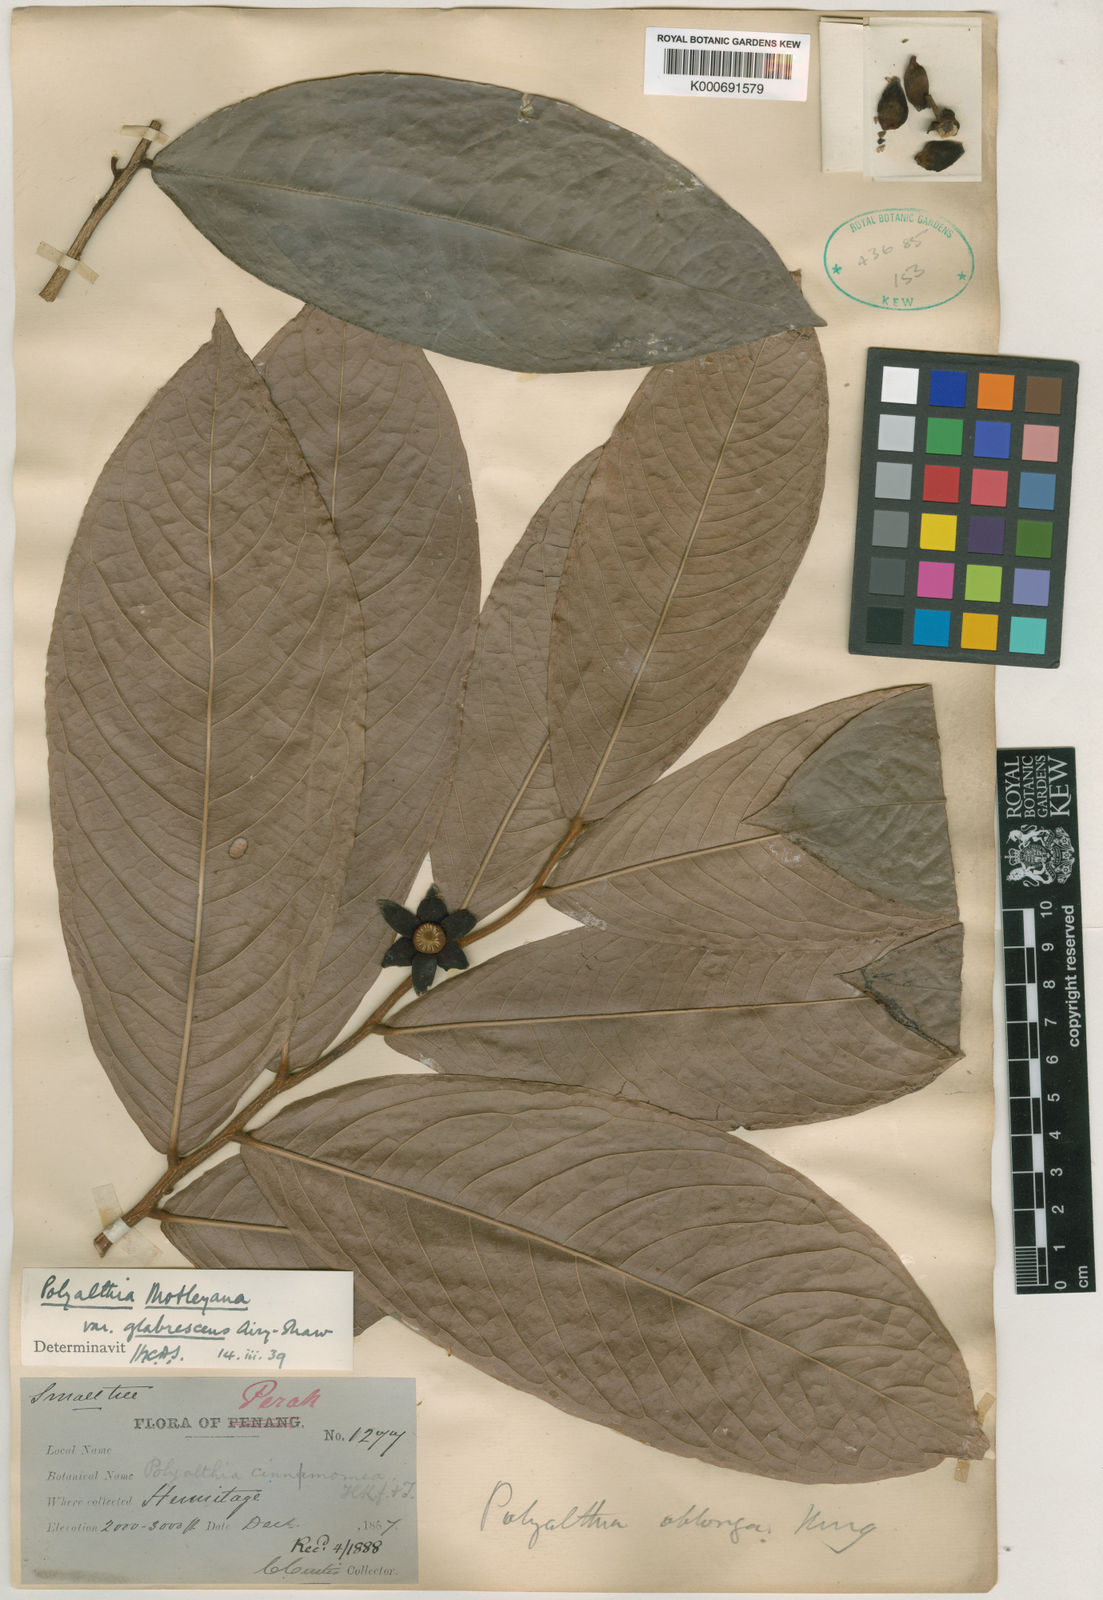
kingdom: Plantae
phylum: Tracheophyta
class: Magnoliopsida
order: Magnoliales
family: Annonaceae
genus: Polyalthia
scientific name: Polyalthia motleyana
